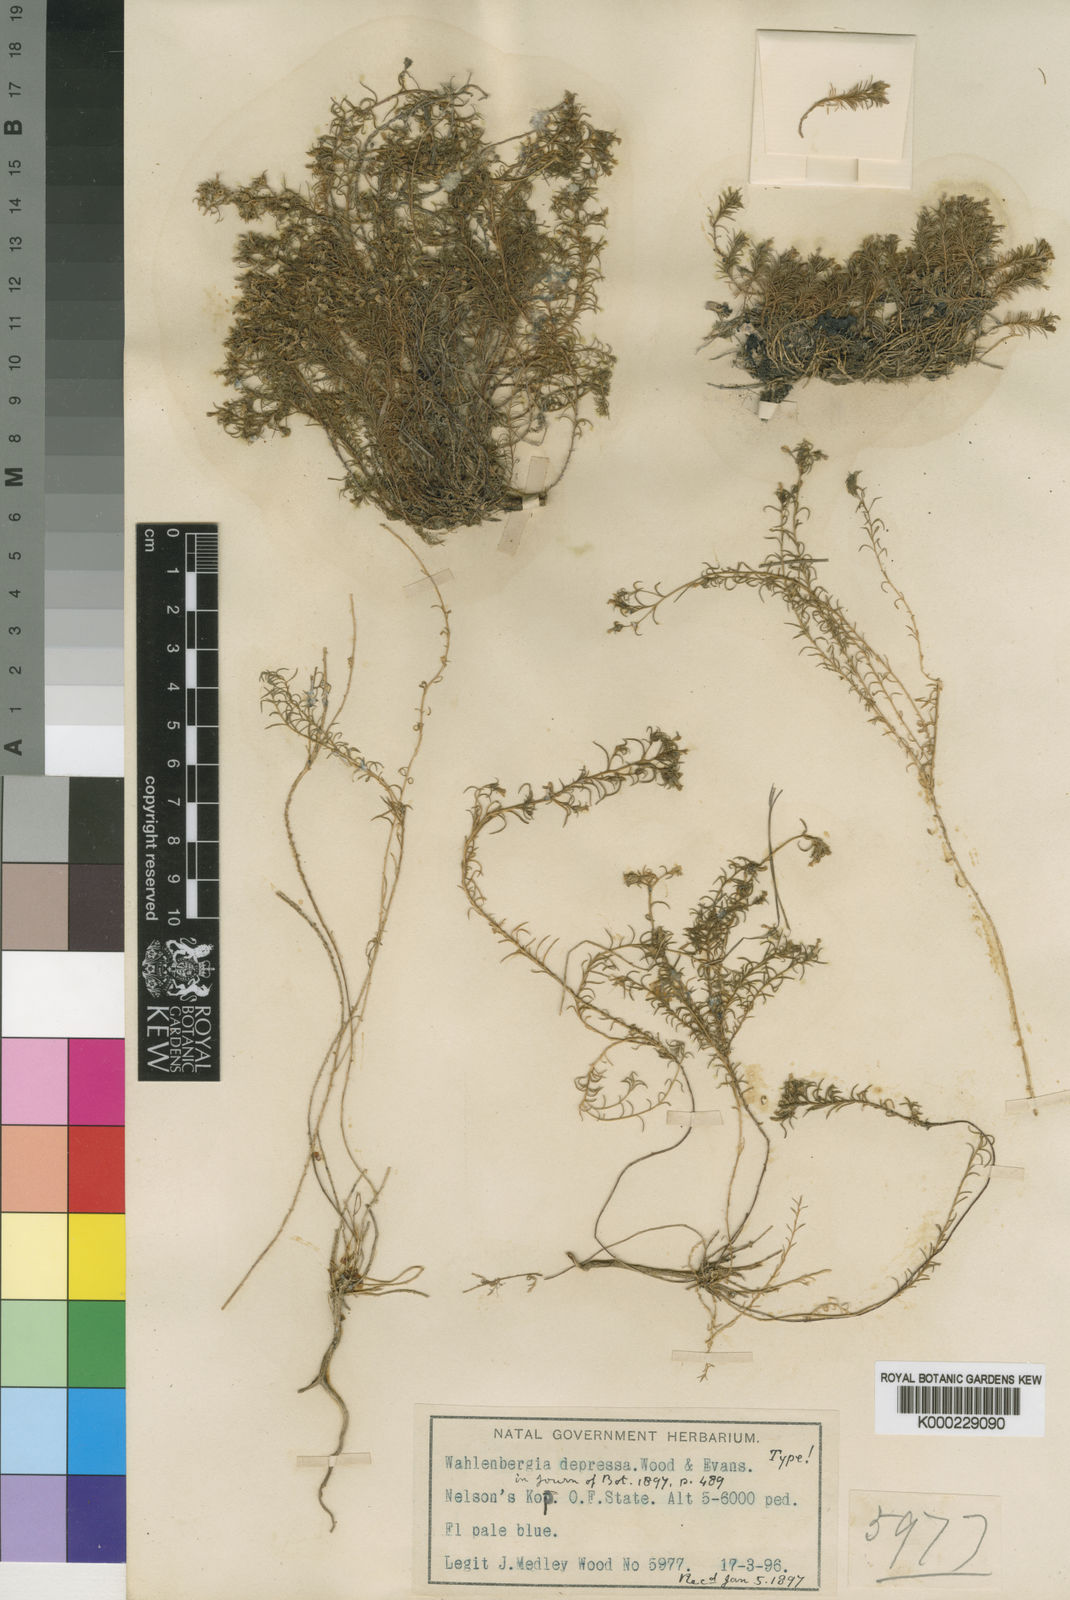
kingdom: Plantae
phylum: Tracheophyta
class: Magnoliopsida
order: Asterales
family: Campanulaceae
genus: Wahlenbergia
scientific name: Wahlenbergia depressa
